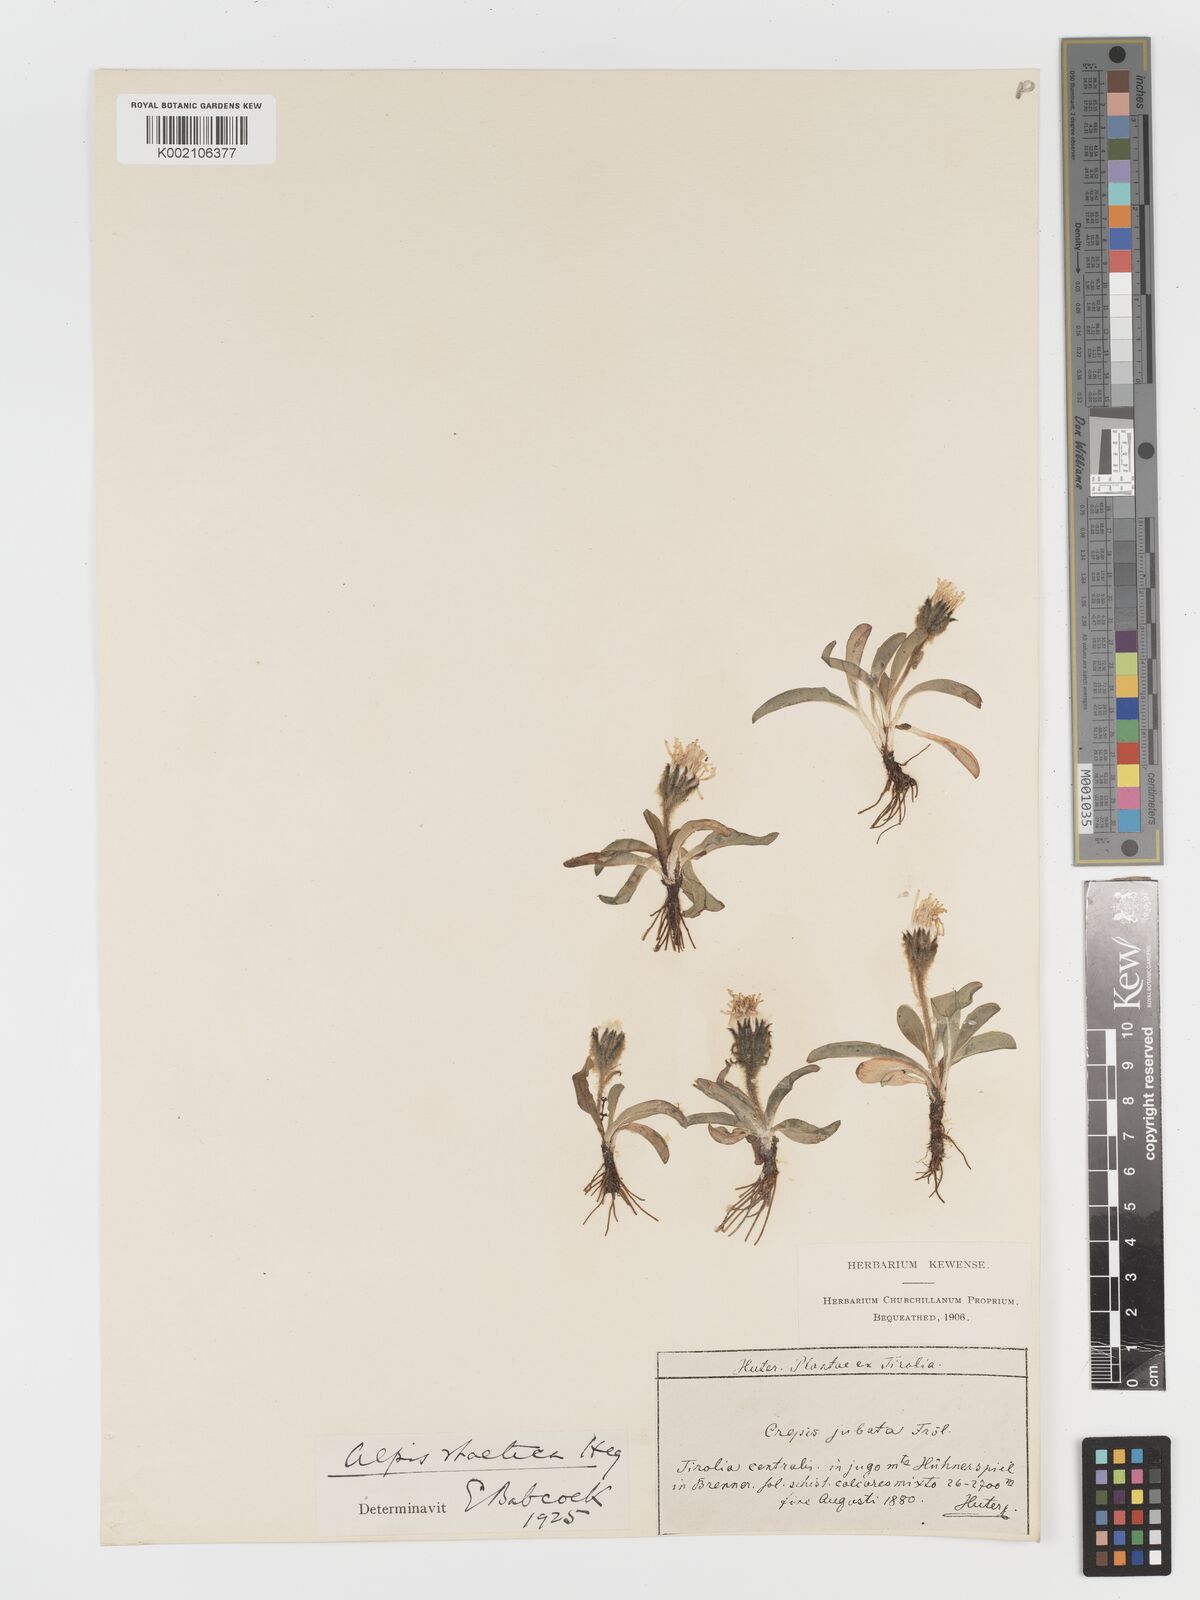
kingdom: Plantae
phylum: Tracheophyta
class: Magnoliopsida
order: Asterales
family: Asteraceae
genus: Crepis
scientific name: Crepis
